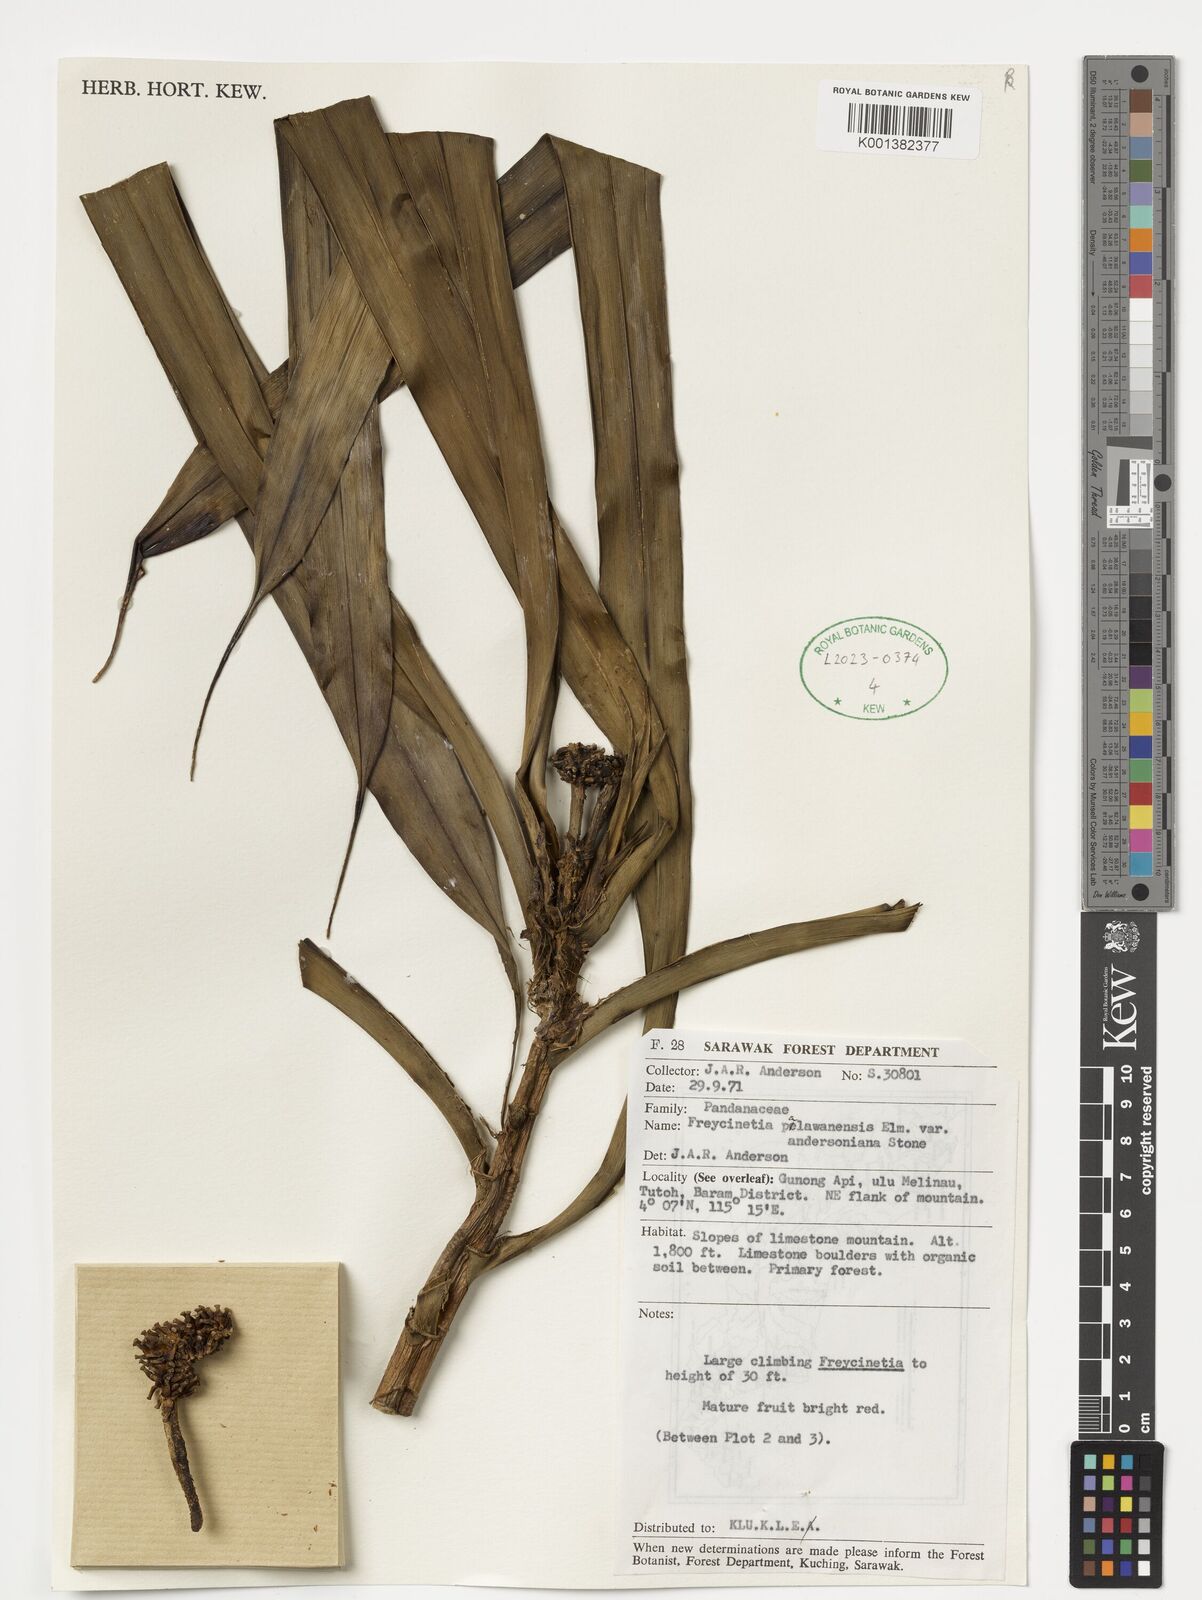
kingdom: Plantae
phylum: Tracheophyta
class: Liliopsida
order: Pandanales
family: Pandanaceae
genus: Freycinetia
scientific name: Freycinetia palawanensis
